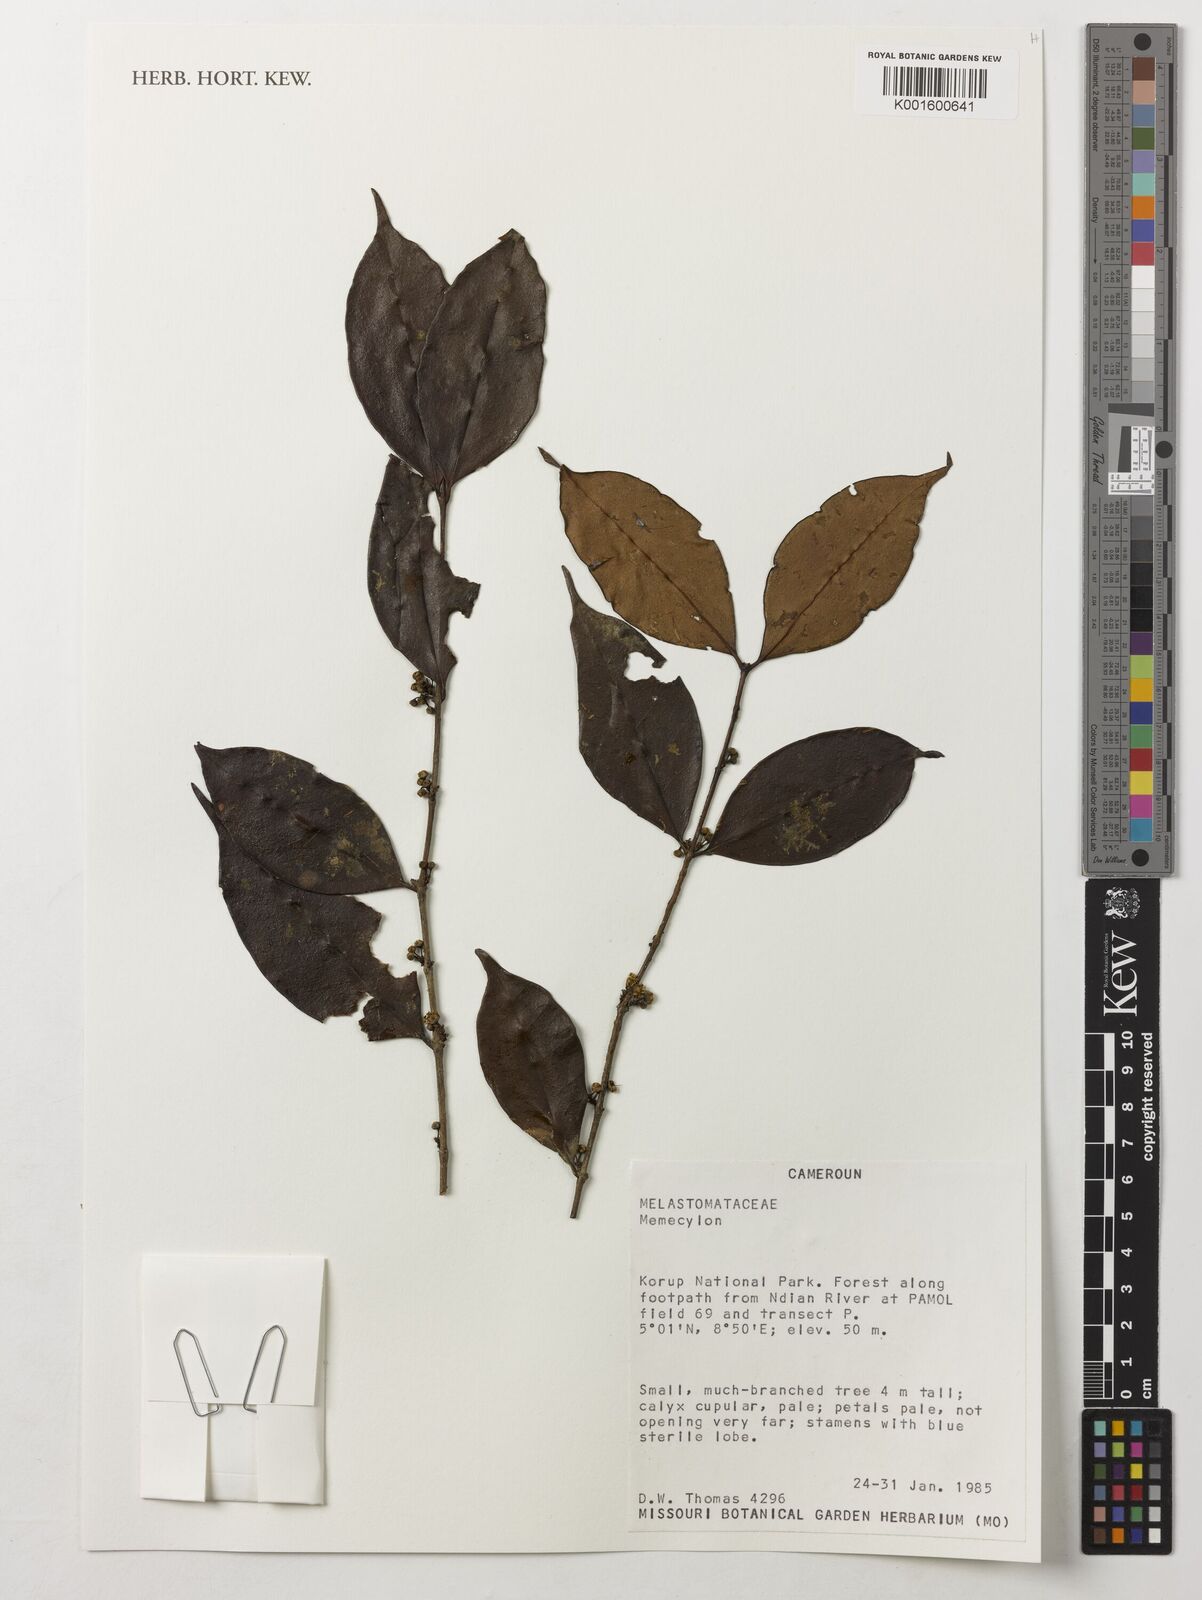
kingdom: Plantae
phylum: Tracheophyta
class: Magnoliopsida
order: Myrtales
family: Melastomataceae
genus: Memecylon
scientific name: Memecylon
